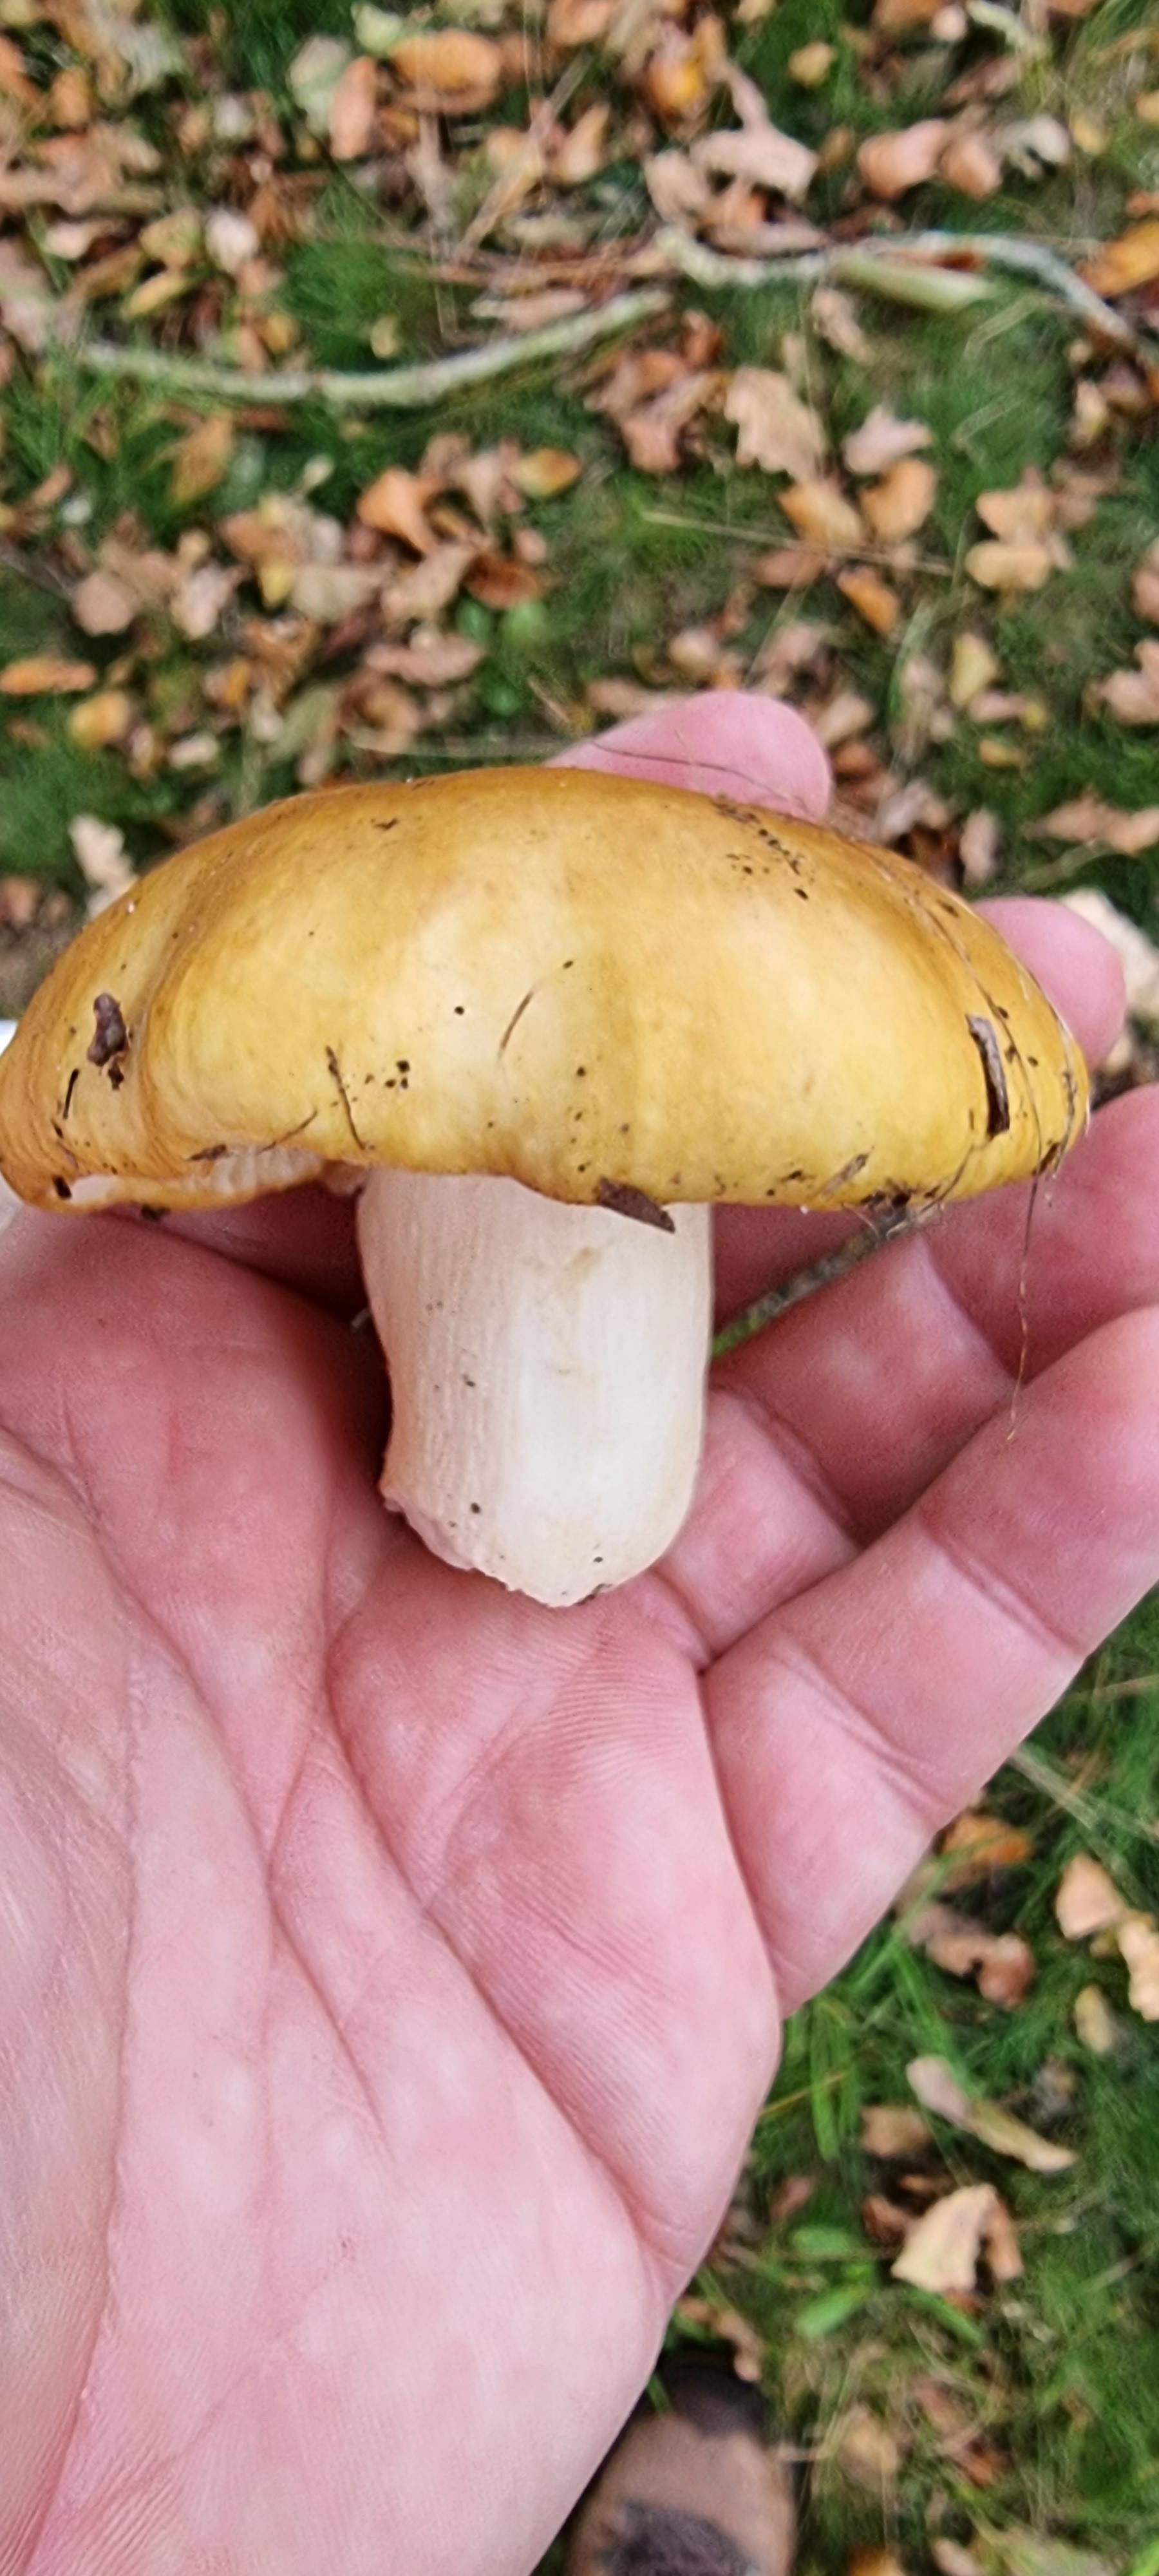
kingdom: Fungi
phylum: Basidiomycota
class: Agaricomycetes
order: Russulales
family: Russulaceae
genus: Russula
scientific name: Russula ochroleuca
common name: okkergul skørhat
